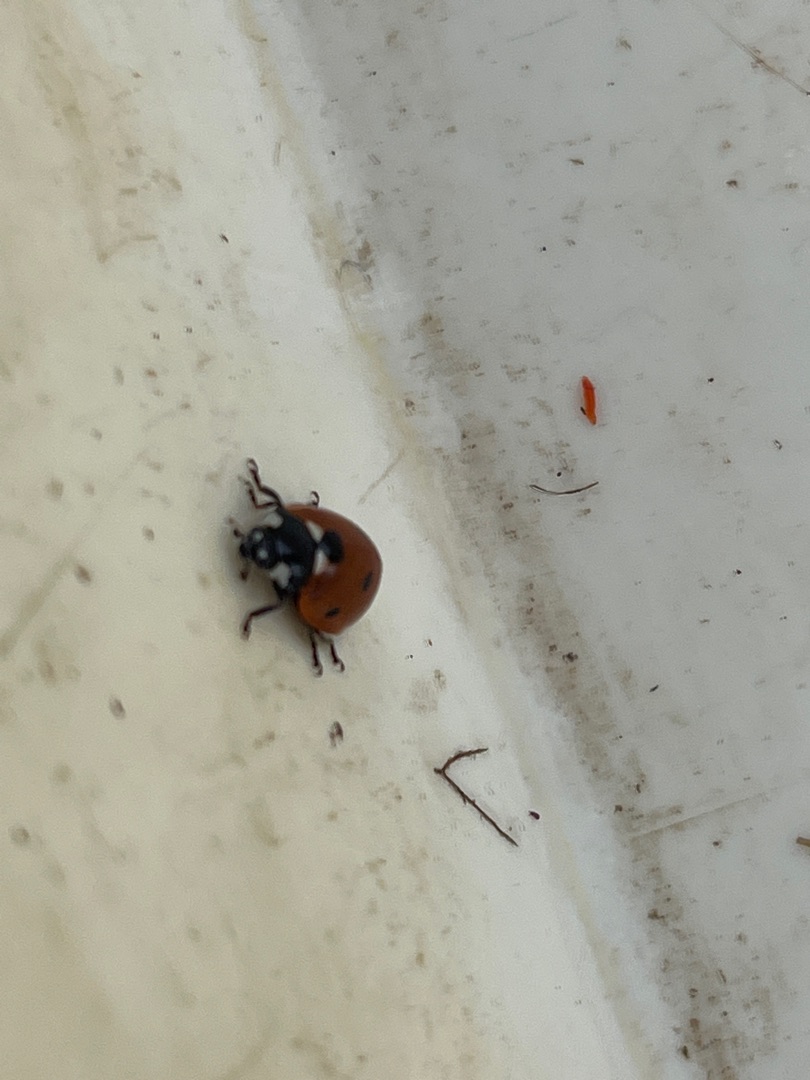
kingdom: Animalia
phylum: Arthropoda
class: Insecta
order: Coleoptera
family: Coccinellidae
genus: Coccinella
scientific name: Coccinella septempunctata
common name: Syvplettet mariehøne
